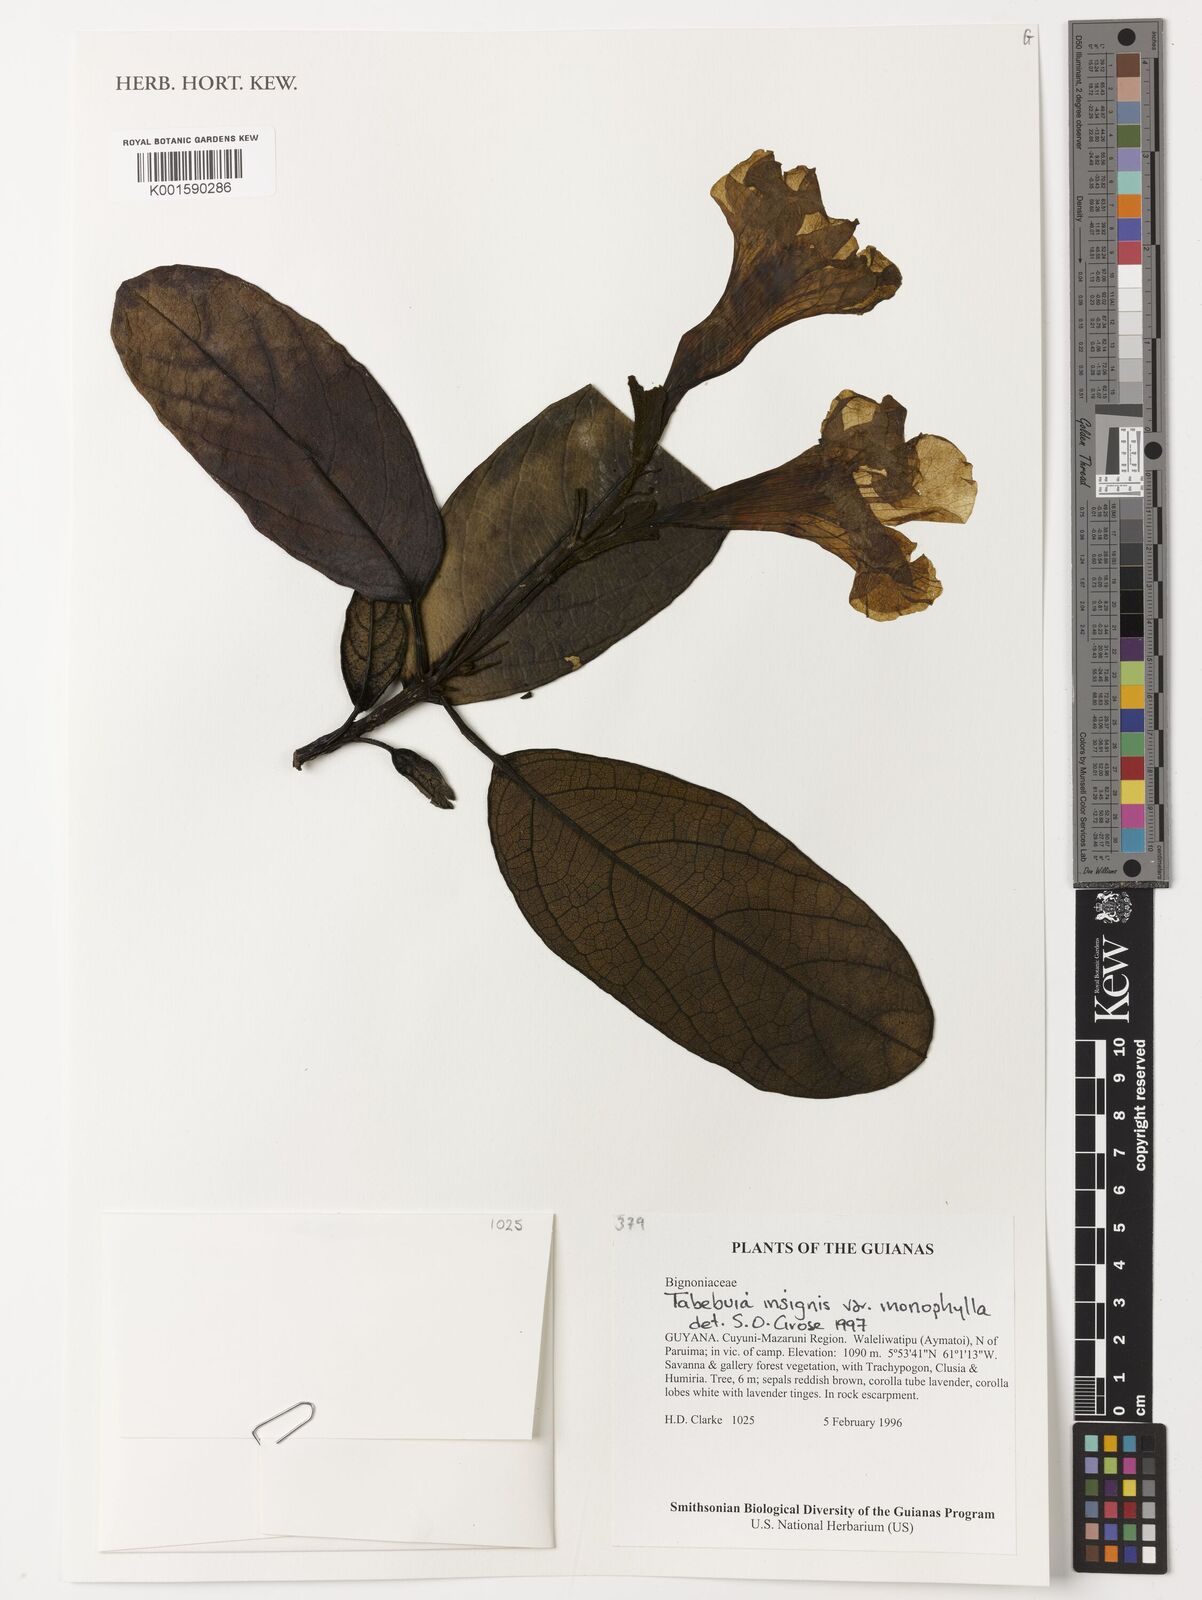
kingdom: Plantae
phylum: Tracheophyta
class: Magnoliopsida
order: Lamiales
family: Bignoniaceae
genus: Tabebuia
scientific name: Tabebuia insignis
